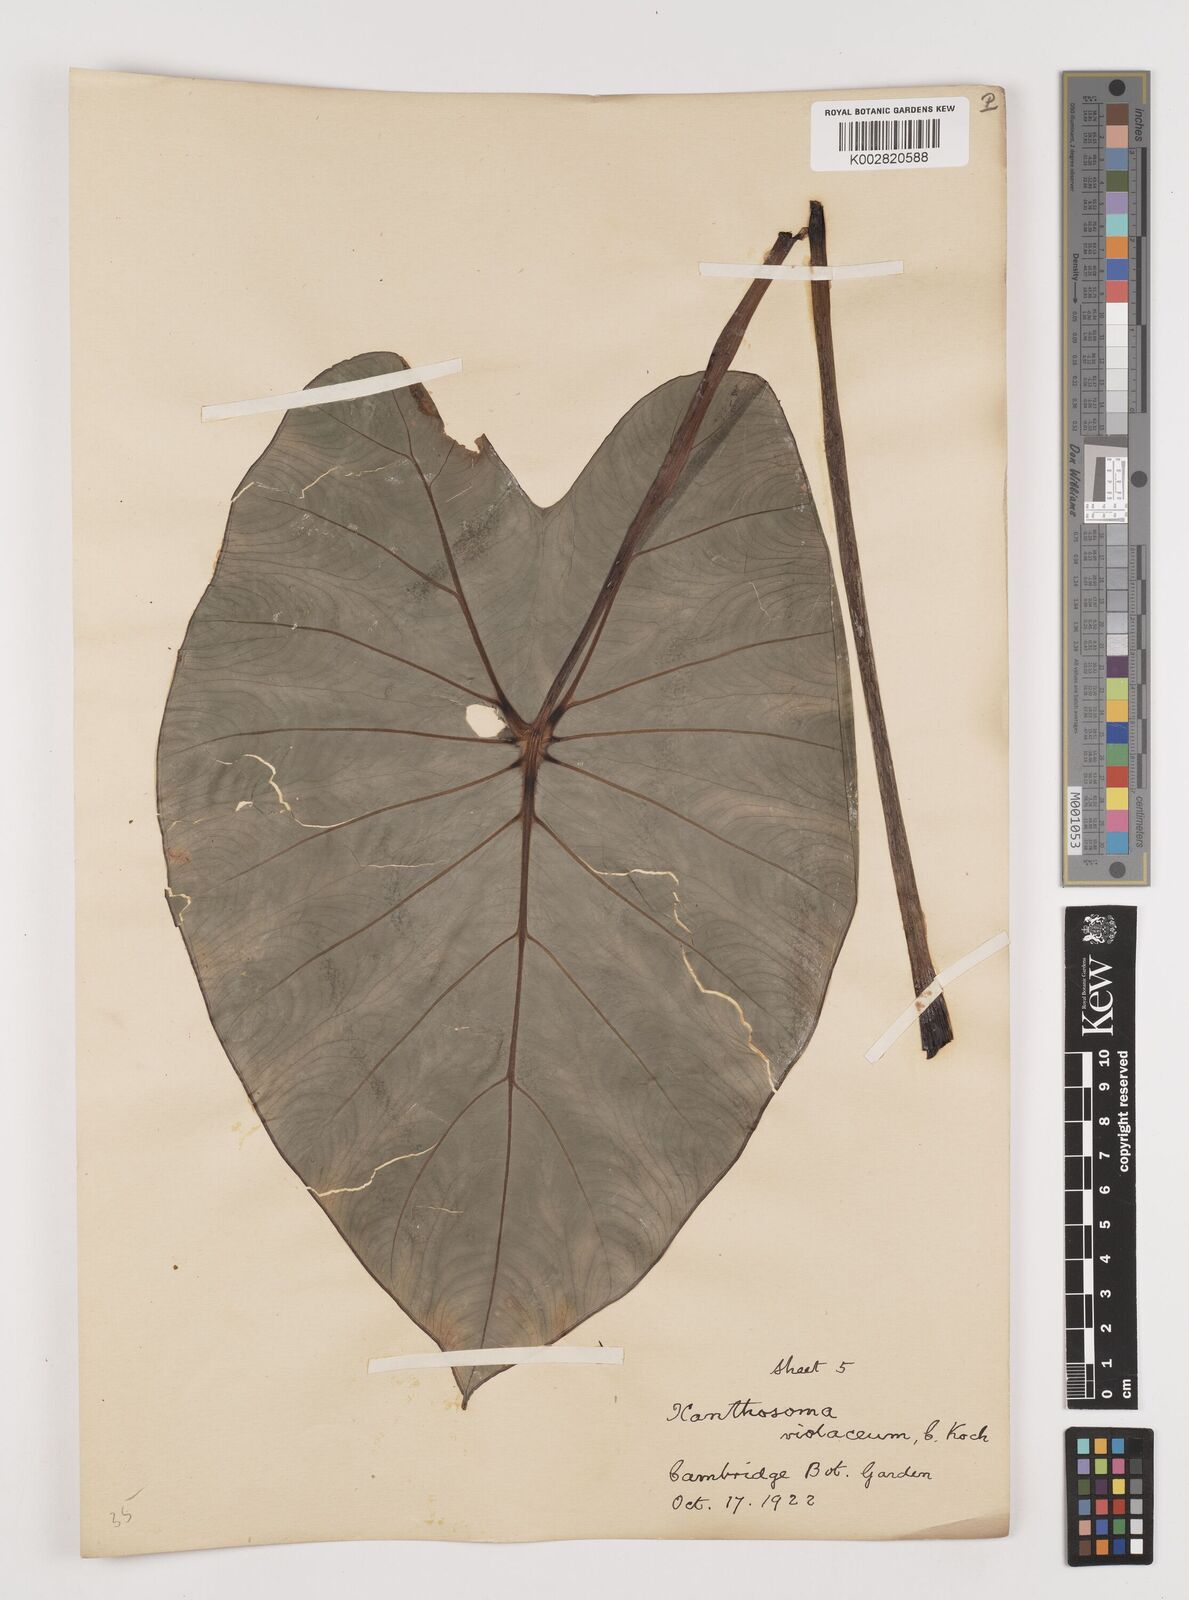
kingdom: Plantae
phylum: Tracheophyta
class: Liliopsida
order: Alismatales
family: Araceae
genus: Colocasia
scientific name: Colocasia esculenta
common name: Taro
